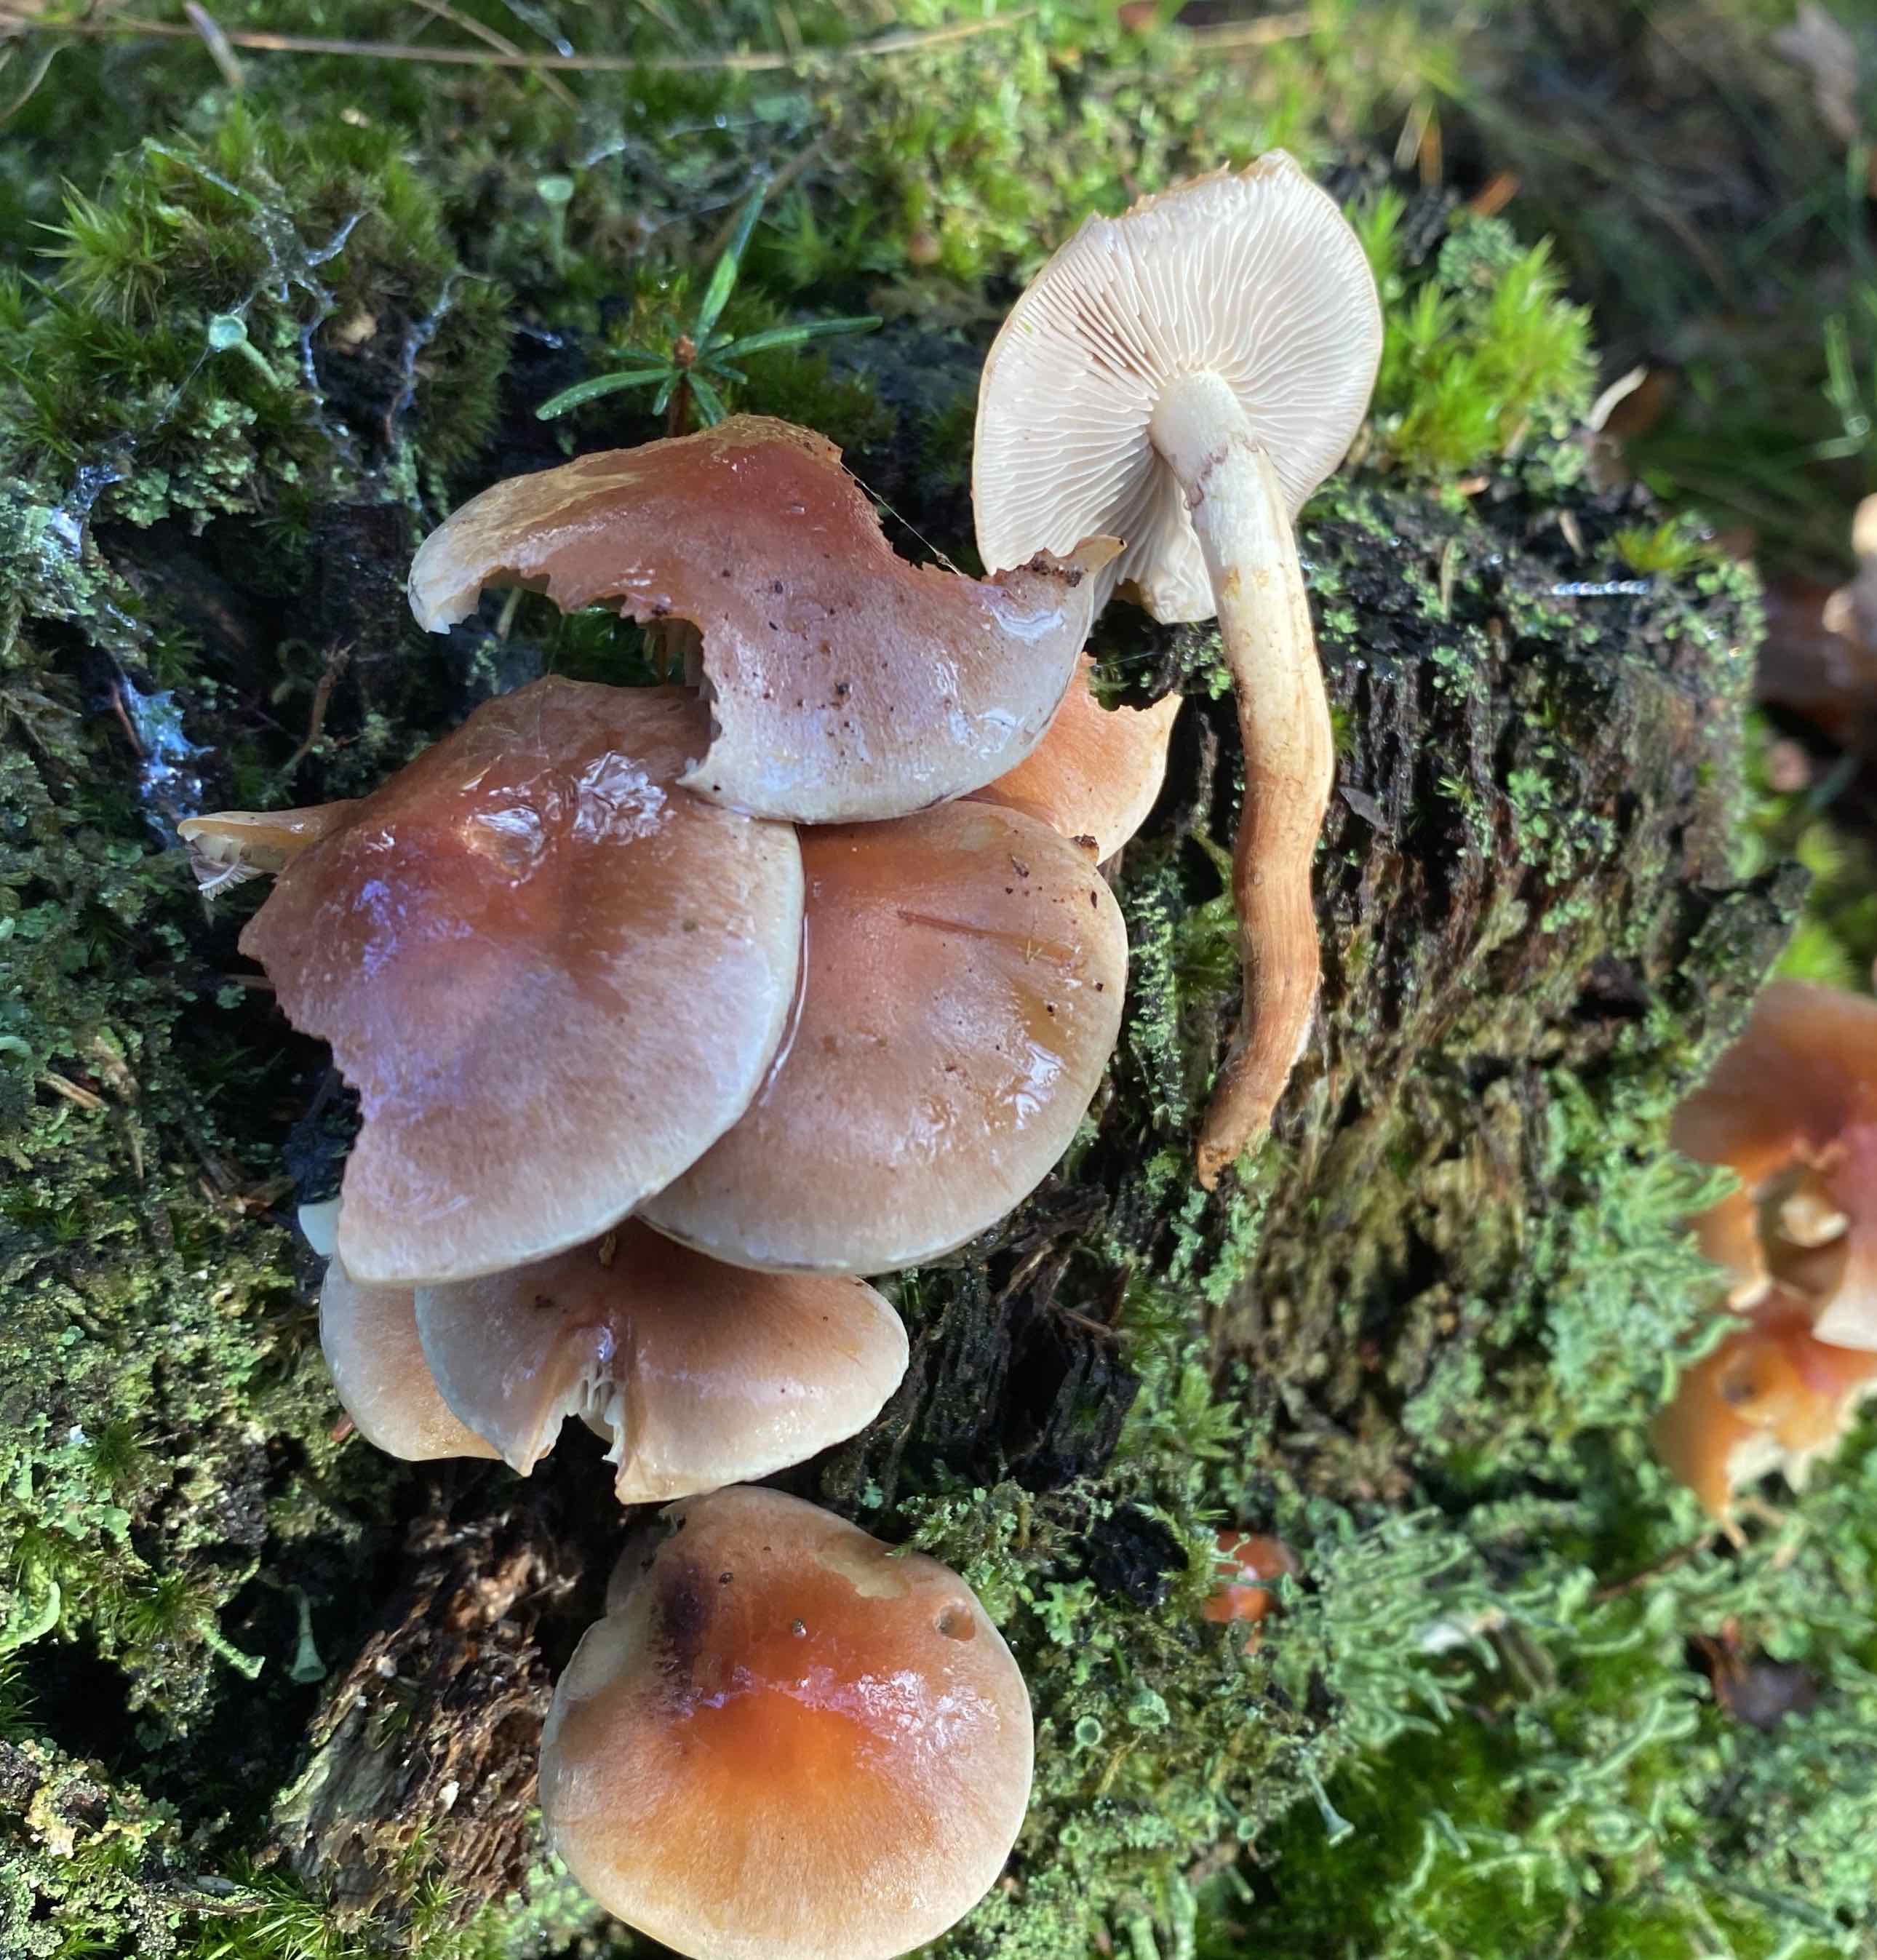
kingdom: Fungi
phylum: Basidiomycota
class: Agaricomycetes
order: Agaricales
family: Strophariaceae
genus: Hypholoma
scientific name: Hypholoma lateritium
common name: teglrød svovlhat
